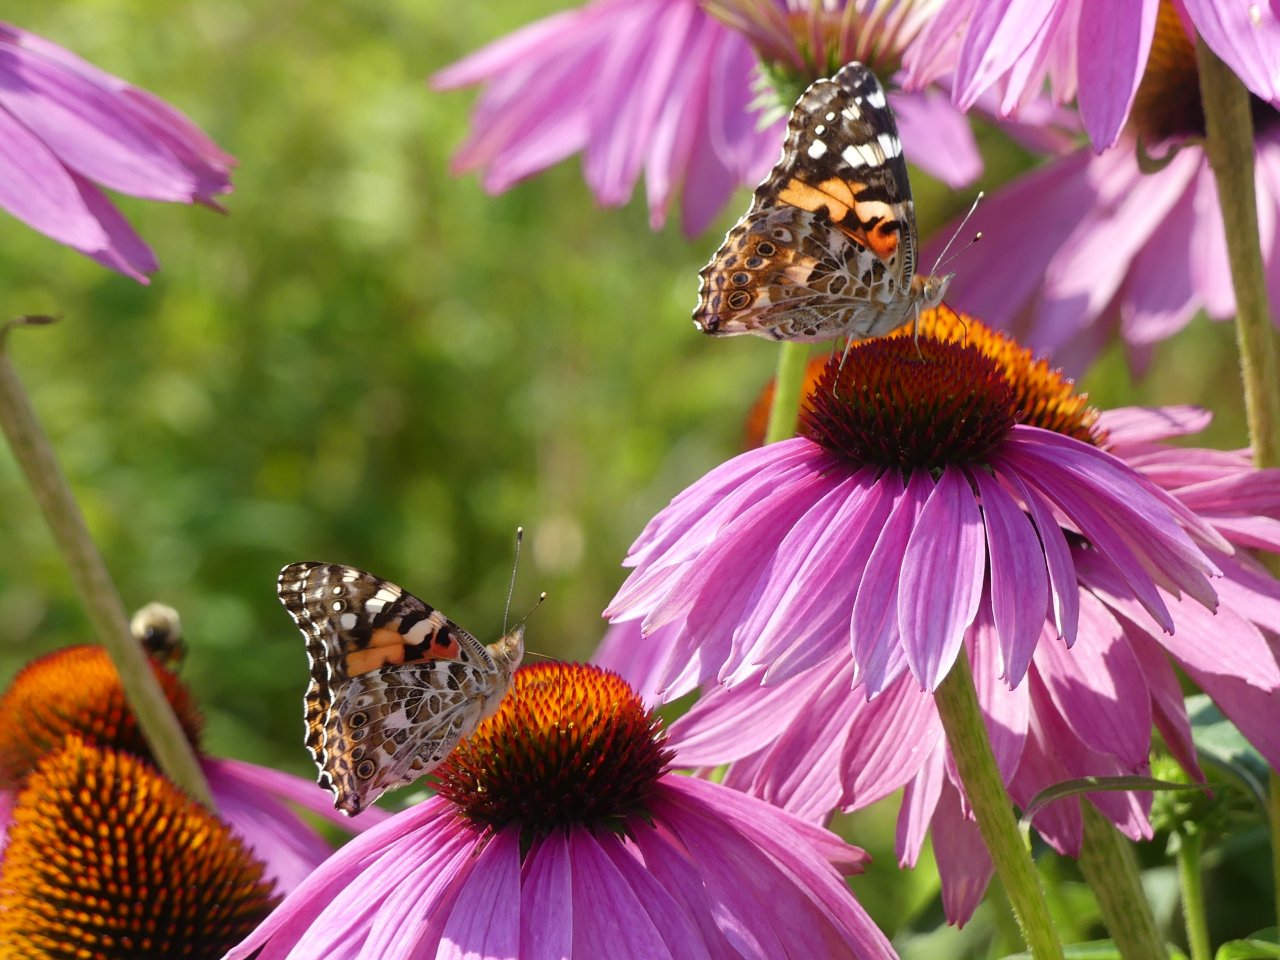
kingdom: Animalia
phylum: Arthropoda
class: Insecta
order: Lepidoptera
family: Nymphalidae
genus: Vanessa
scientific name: Vanessa cardui
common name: Painted Lady
